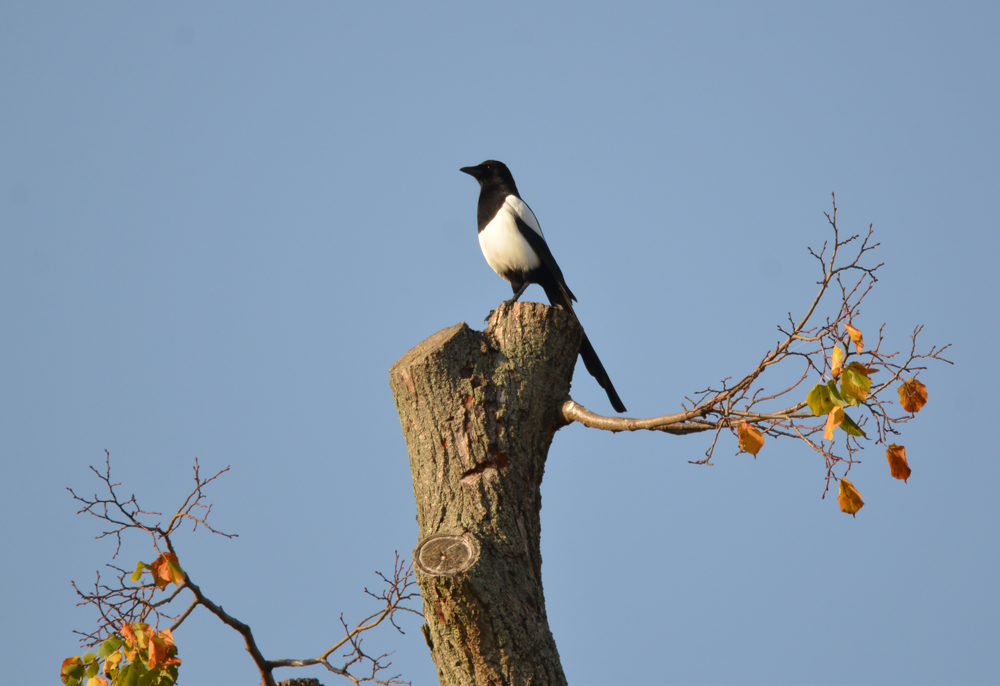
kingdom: Animalia
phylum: Chordata
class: Aves
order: Passeriformes
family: Corvidae
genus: Pica
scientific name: Pica pica
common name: Eurasian magpie
